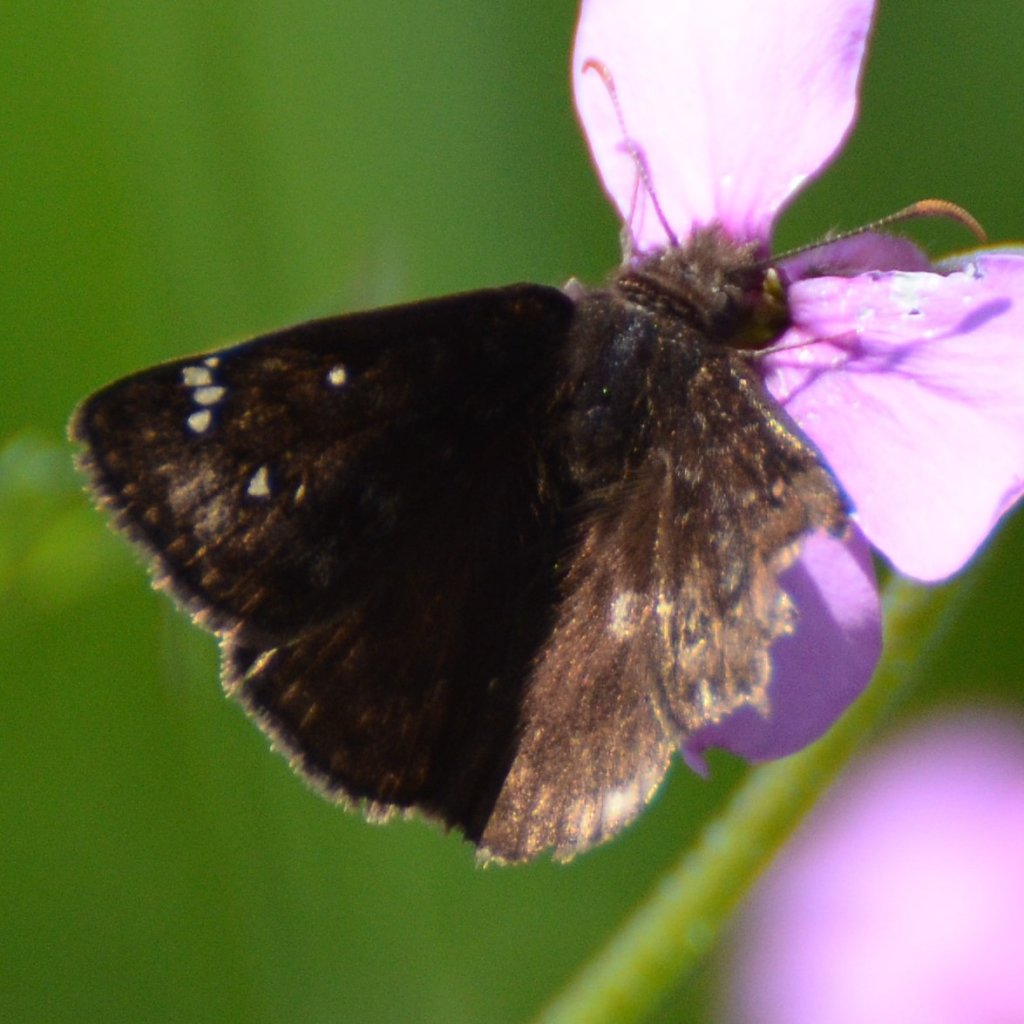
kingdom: Animalia
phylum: Arthropoda
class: Insecta
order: Lepidoptera
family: Hesperiidae
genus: Gesta
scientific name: Gesta
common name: Columbine Duskywing
